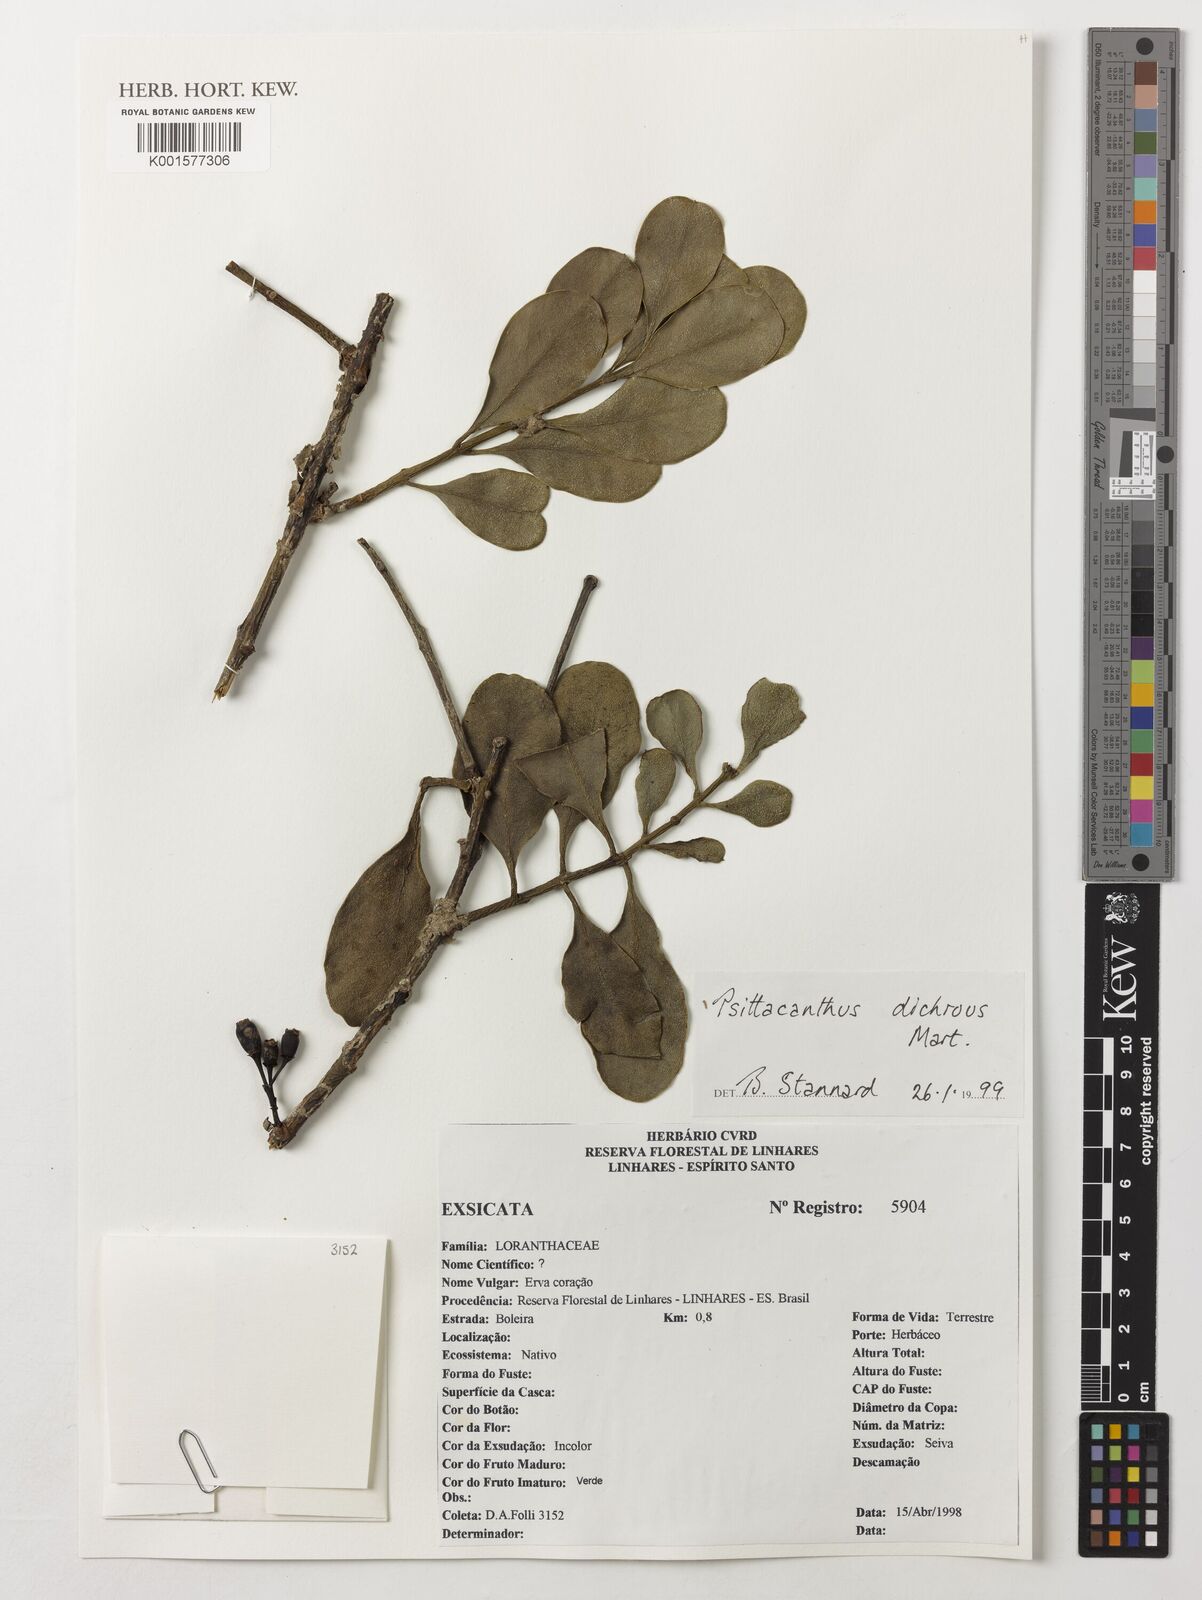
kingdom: Plantae
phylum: Tracheophyta
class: Magnoliopsida
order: Santalales
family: Loranthaceae
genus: Psittacanthus
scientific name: Psittacanthus dichrous
